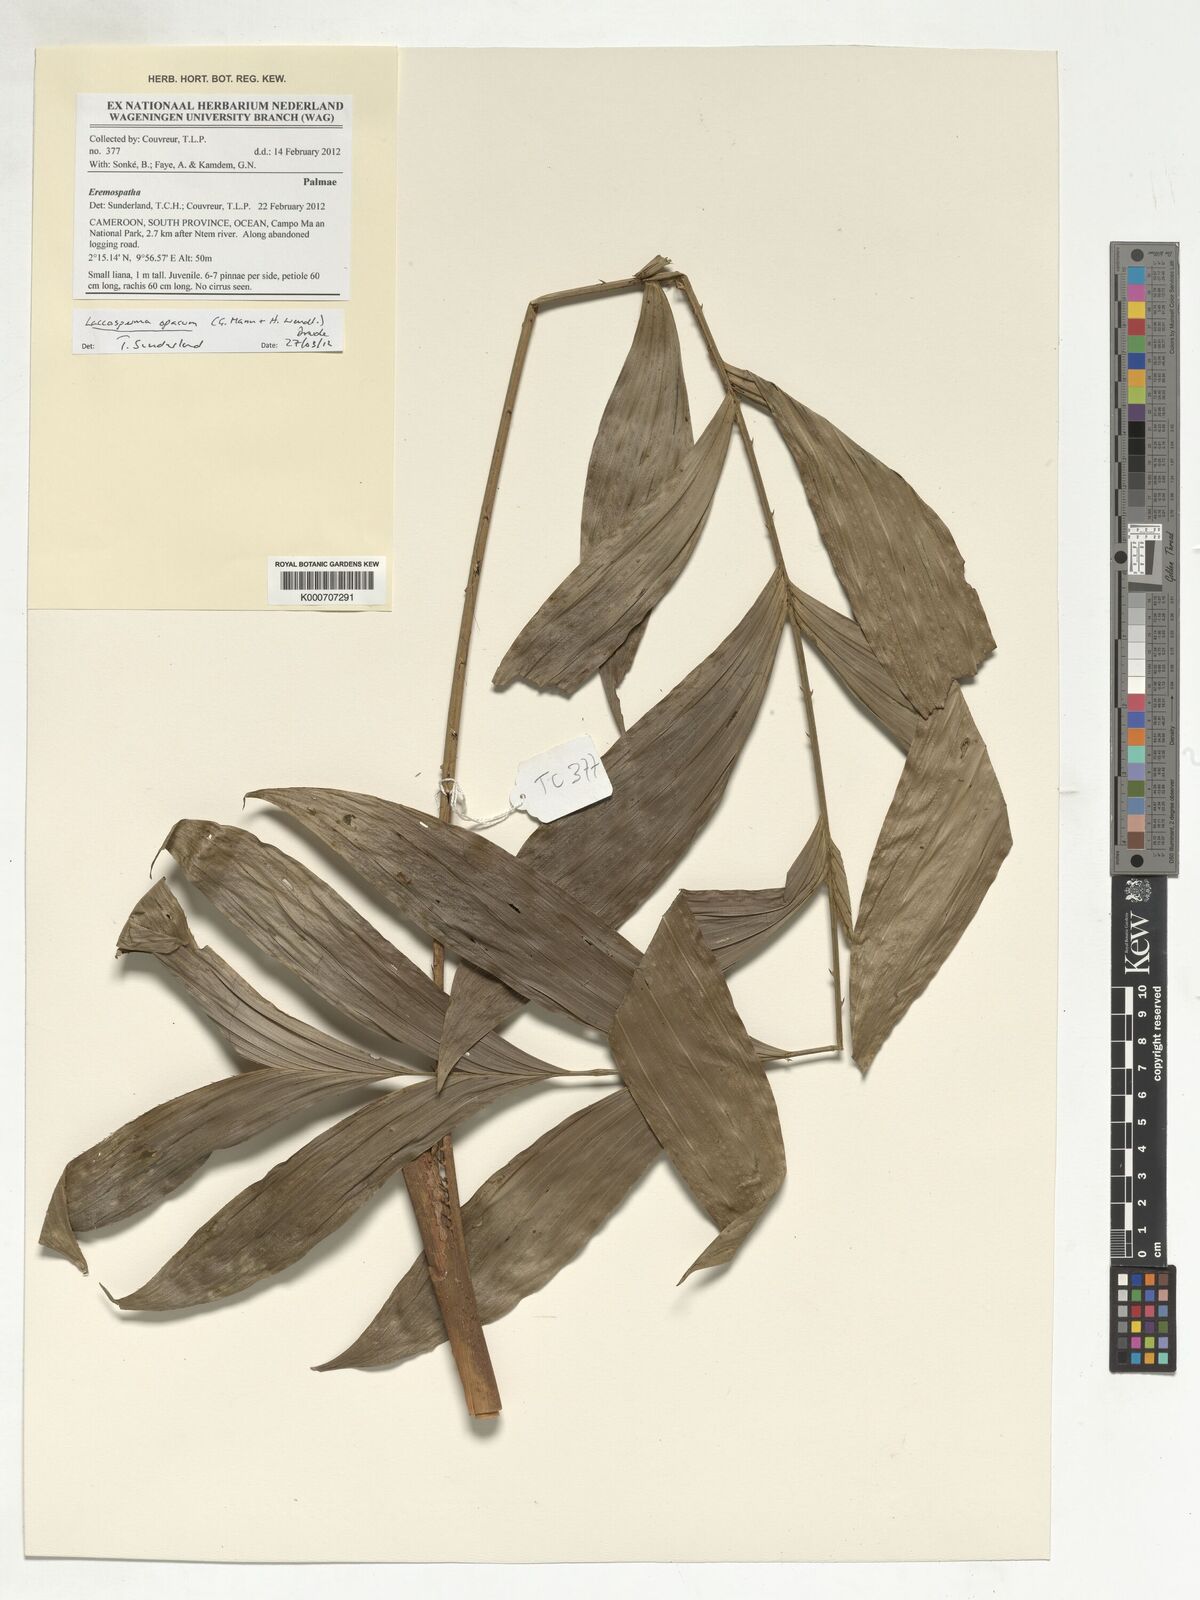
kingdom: Plantae
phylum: Tracheophyta
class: Liliopsida
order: Arecales
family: Arecaceae
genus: Laccosperma
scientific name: Laccosperma opacum
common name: Rattan
